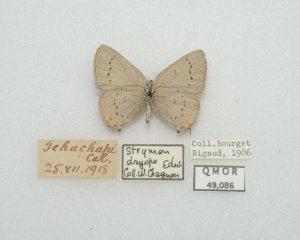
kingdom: Animalia
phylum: Arthropoda
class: Insecta
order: Lepidoptera
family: Lycaenidae
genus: Strymon
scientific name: Strymon sylvinus
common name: Sylvan Hairstreak
